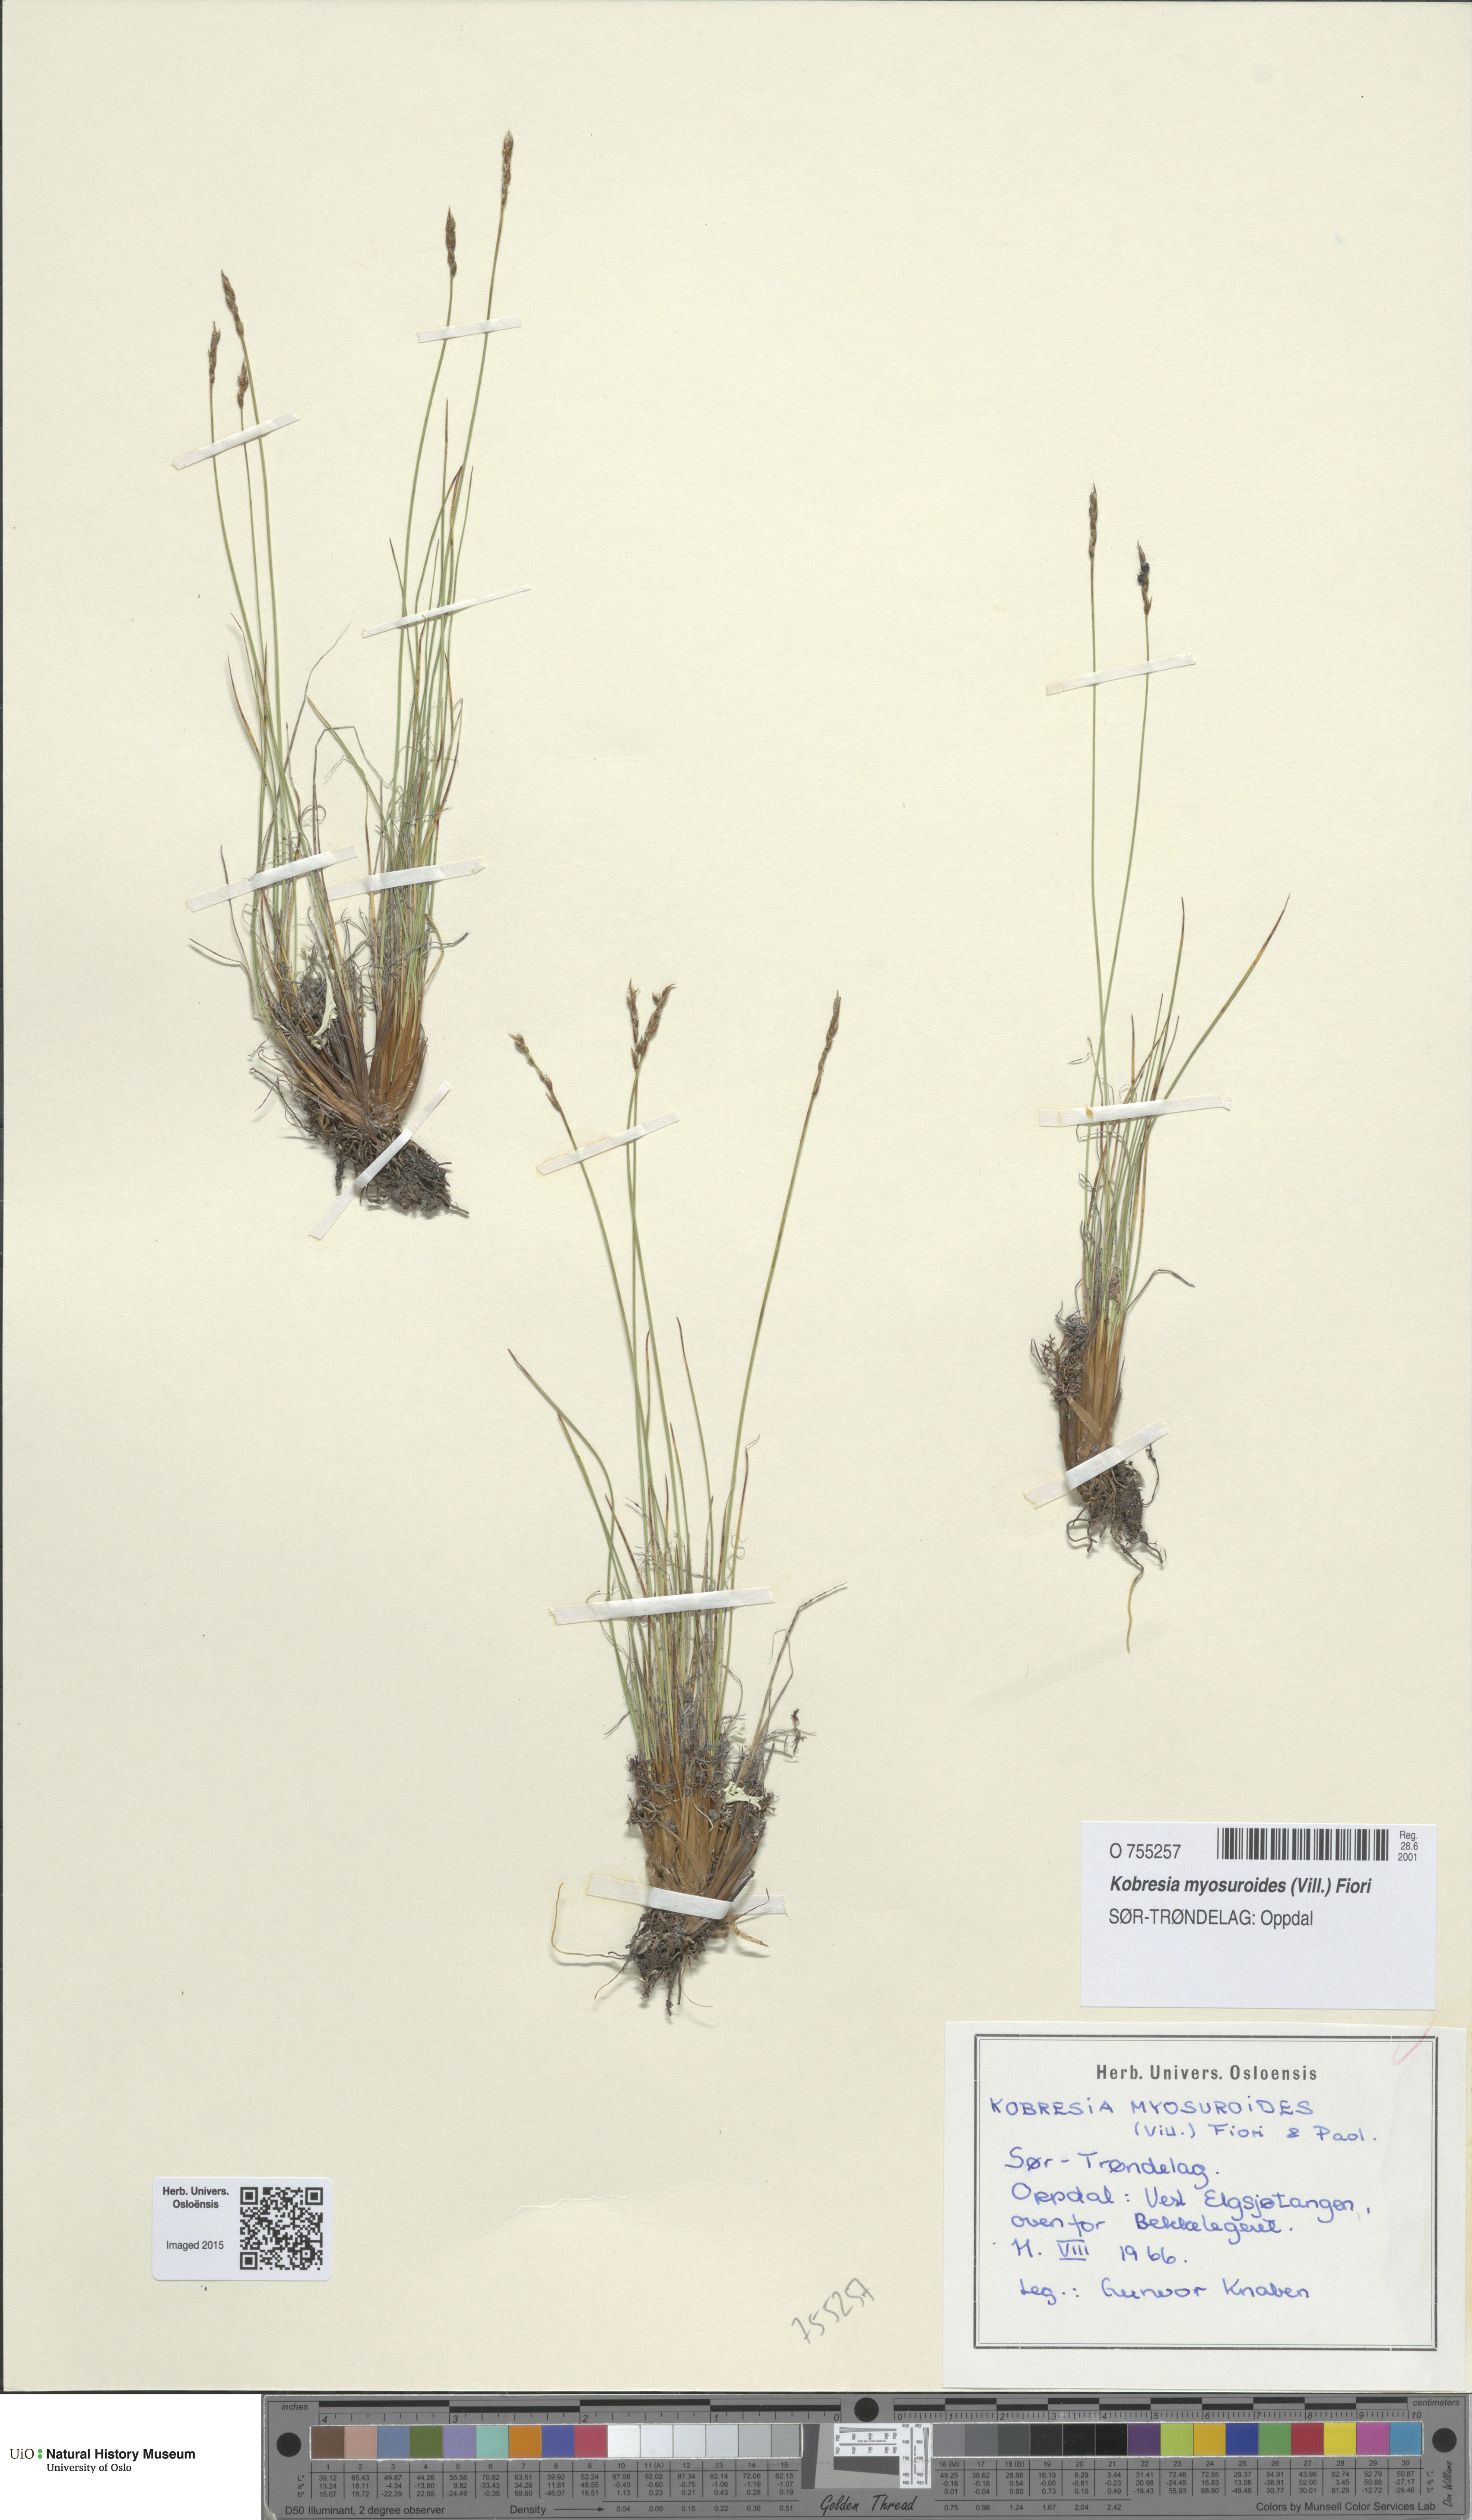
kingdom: Plantae
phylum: Tracheophyta
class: Liliopsida
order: Poales
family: Cyperaceae
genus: Carex
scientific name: Carex myosuroides
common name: Bellard's bog sedge
